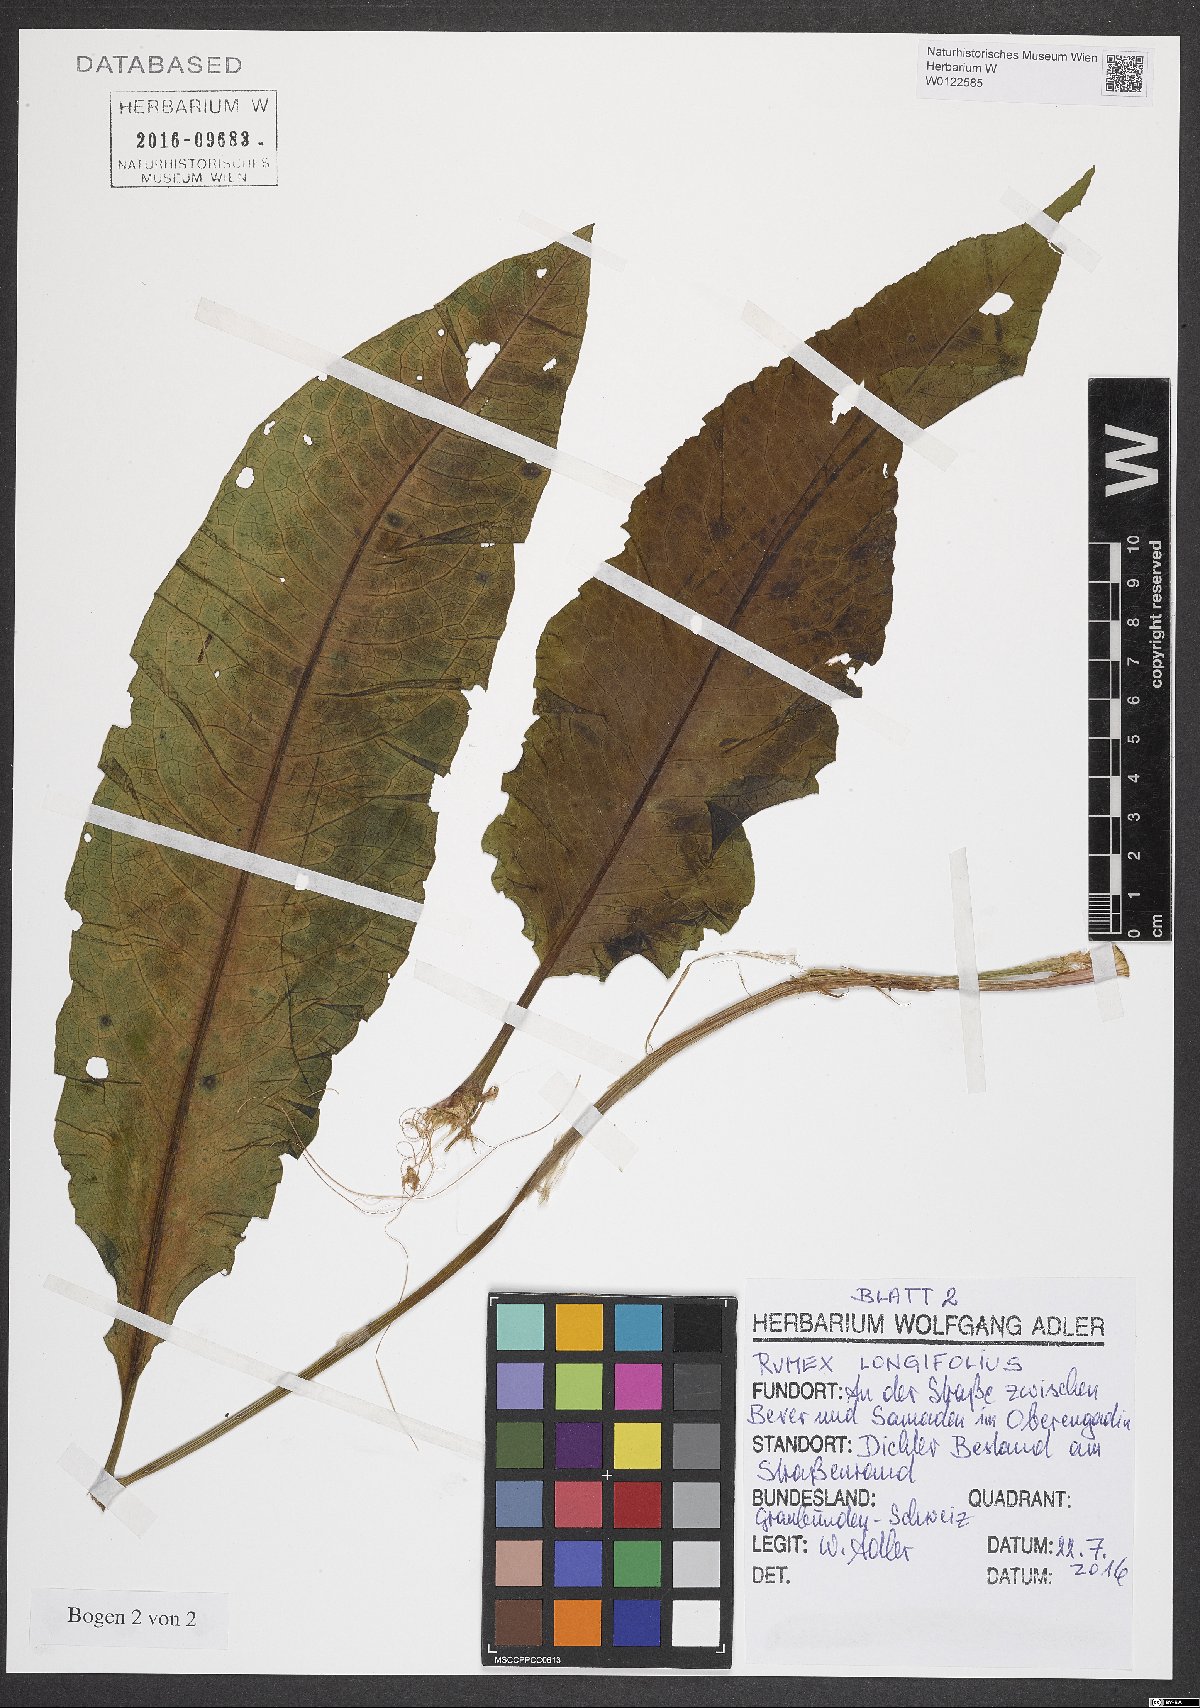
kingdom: Plantae
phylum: Tracheophyta
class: Magnoliopsida
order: Caryophyllales
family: Polygonaceae
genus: Rumex
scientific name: Rumex longifolius
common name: Dooryard dock
